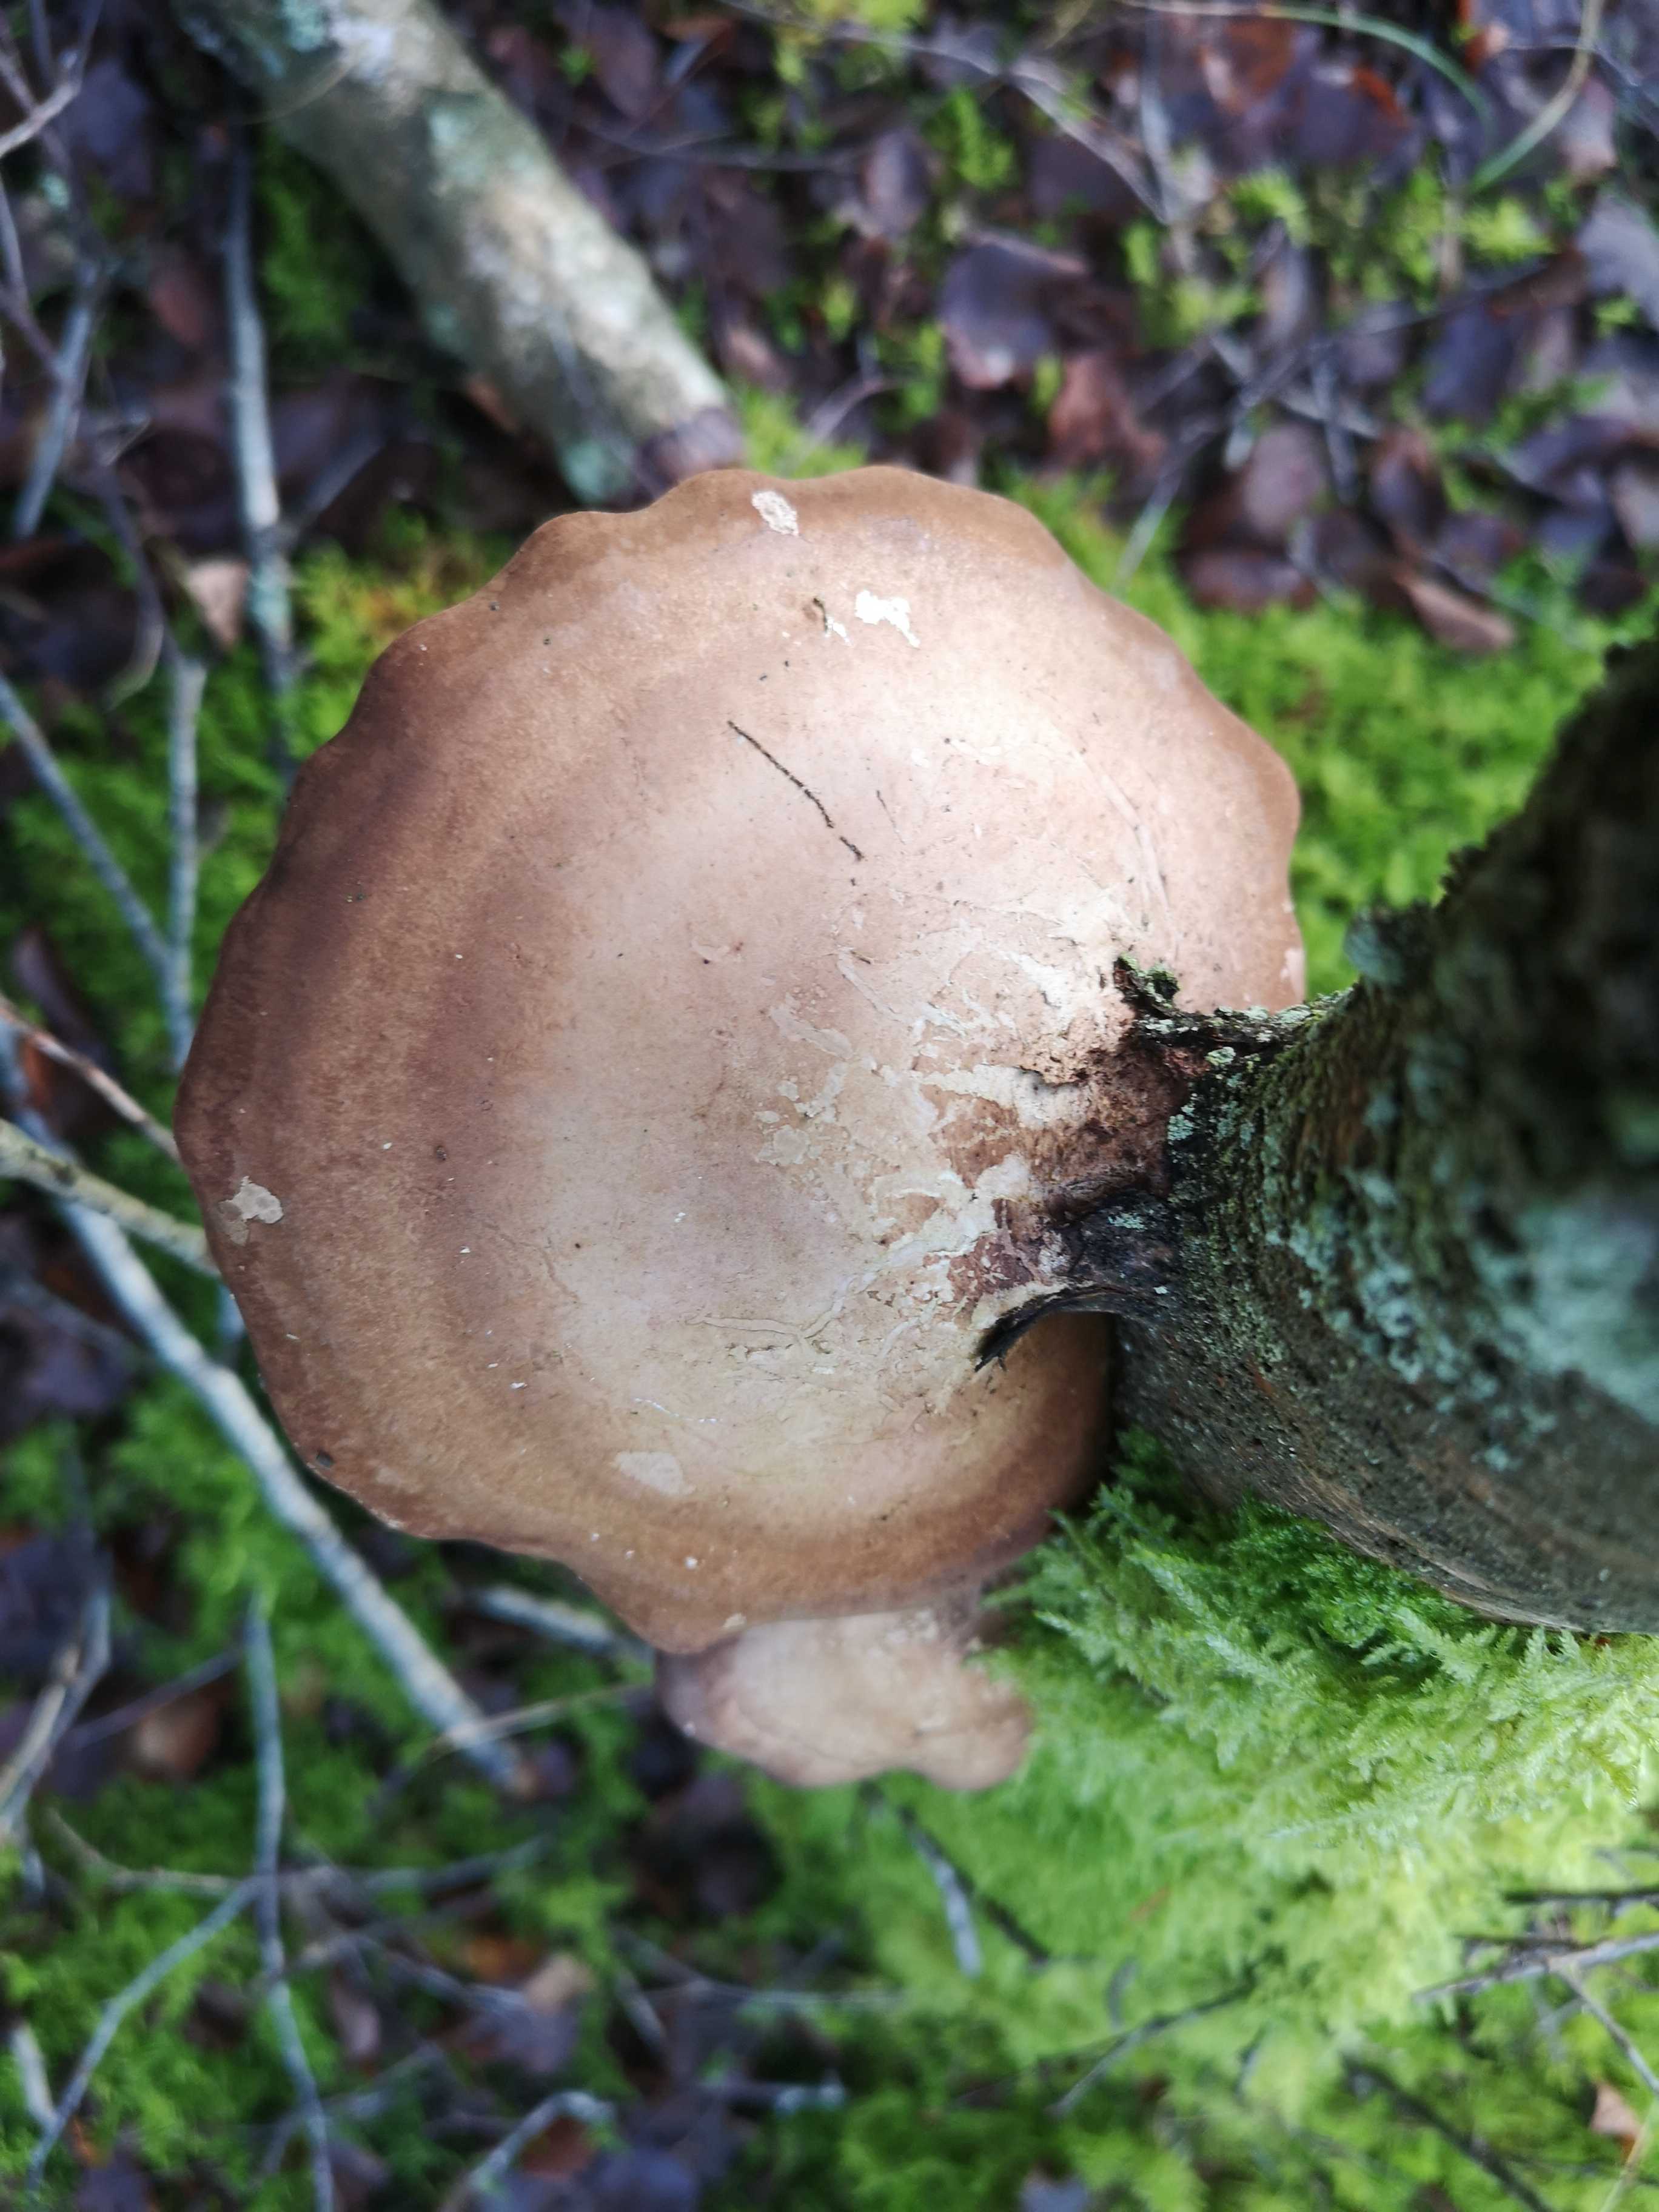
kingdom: Fungi
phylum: Basidiomycota
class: Agaricomycetes
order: Polyporales
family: Fomitopsidaceae
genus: Fomitopsis
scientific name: Fomitopsis betulina
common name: birkeporesvamp
